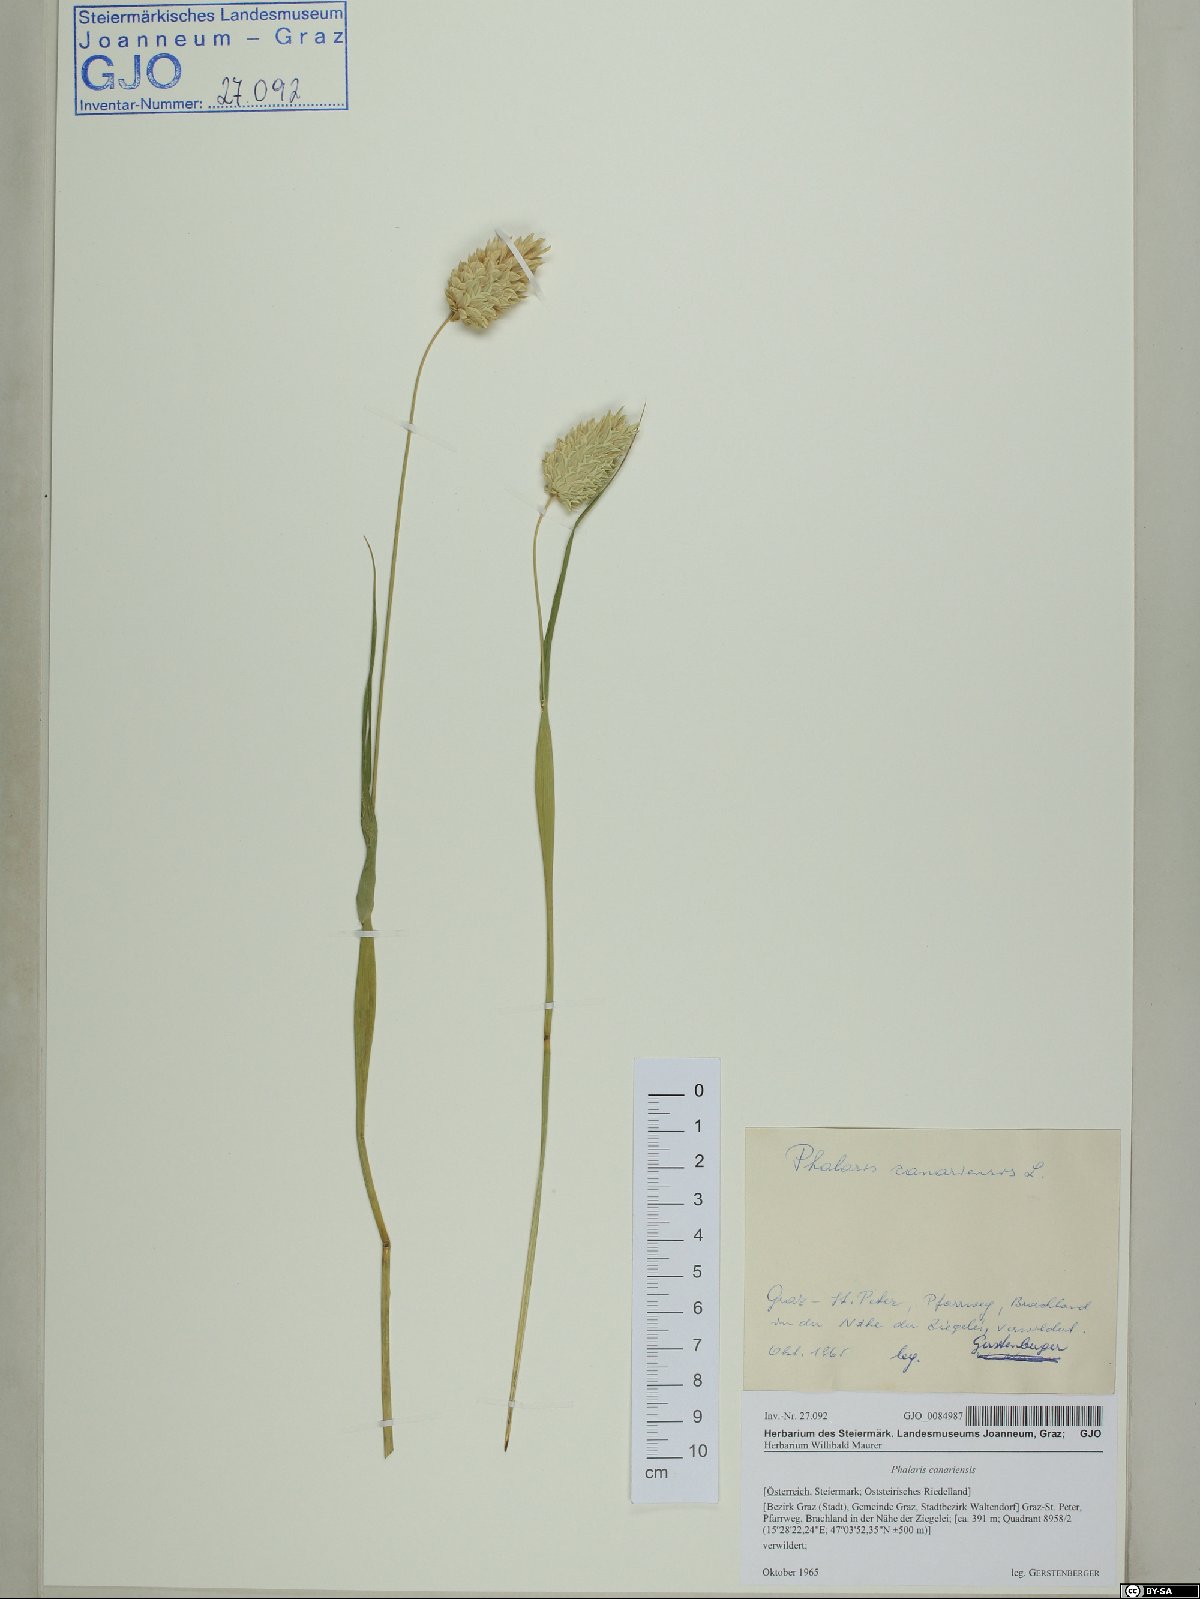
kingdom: Plantae
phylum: Tracheophyta
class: Liliopsida
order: Poales
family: Poaceae
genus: Phalaris
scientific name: Phalaris canariensis
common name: Annual canarygrass
